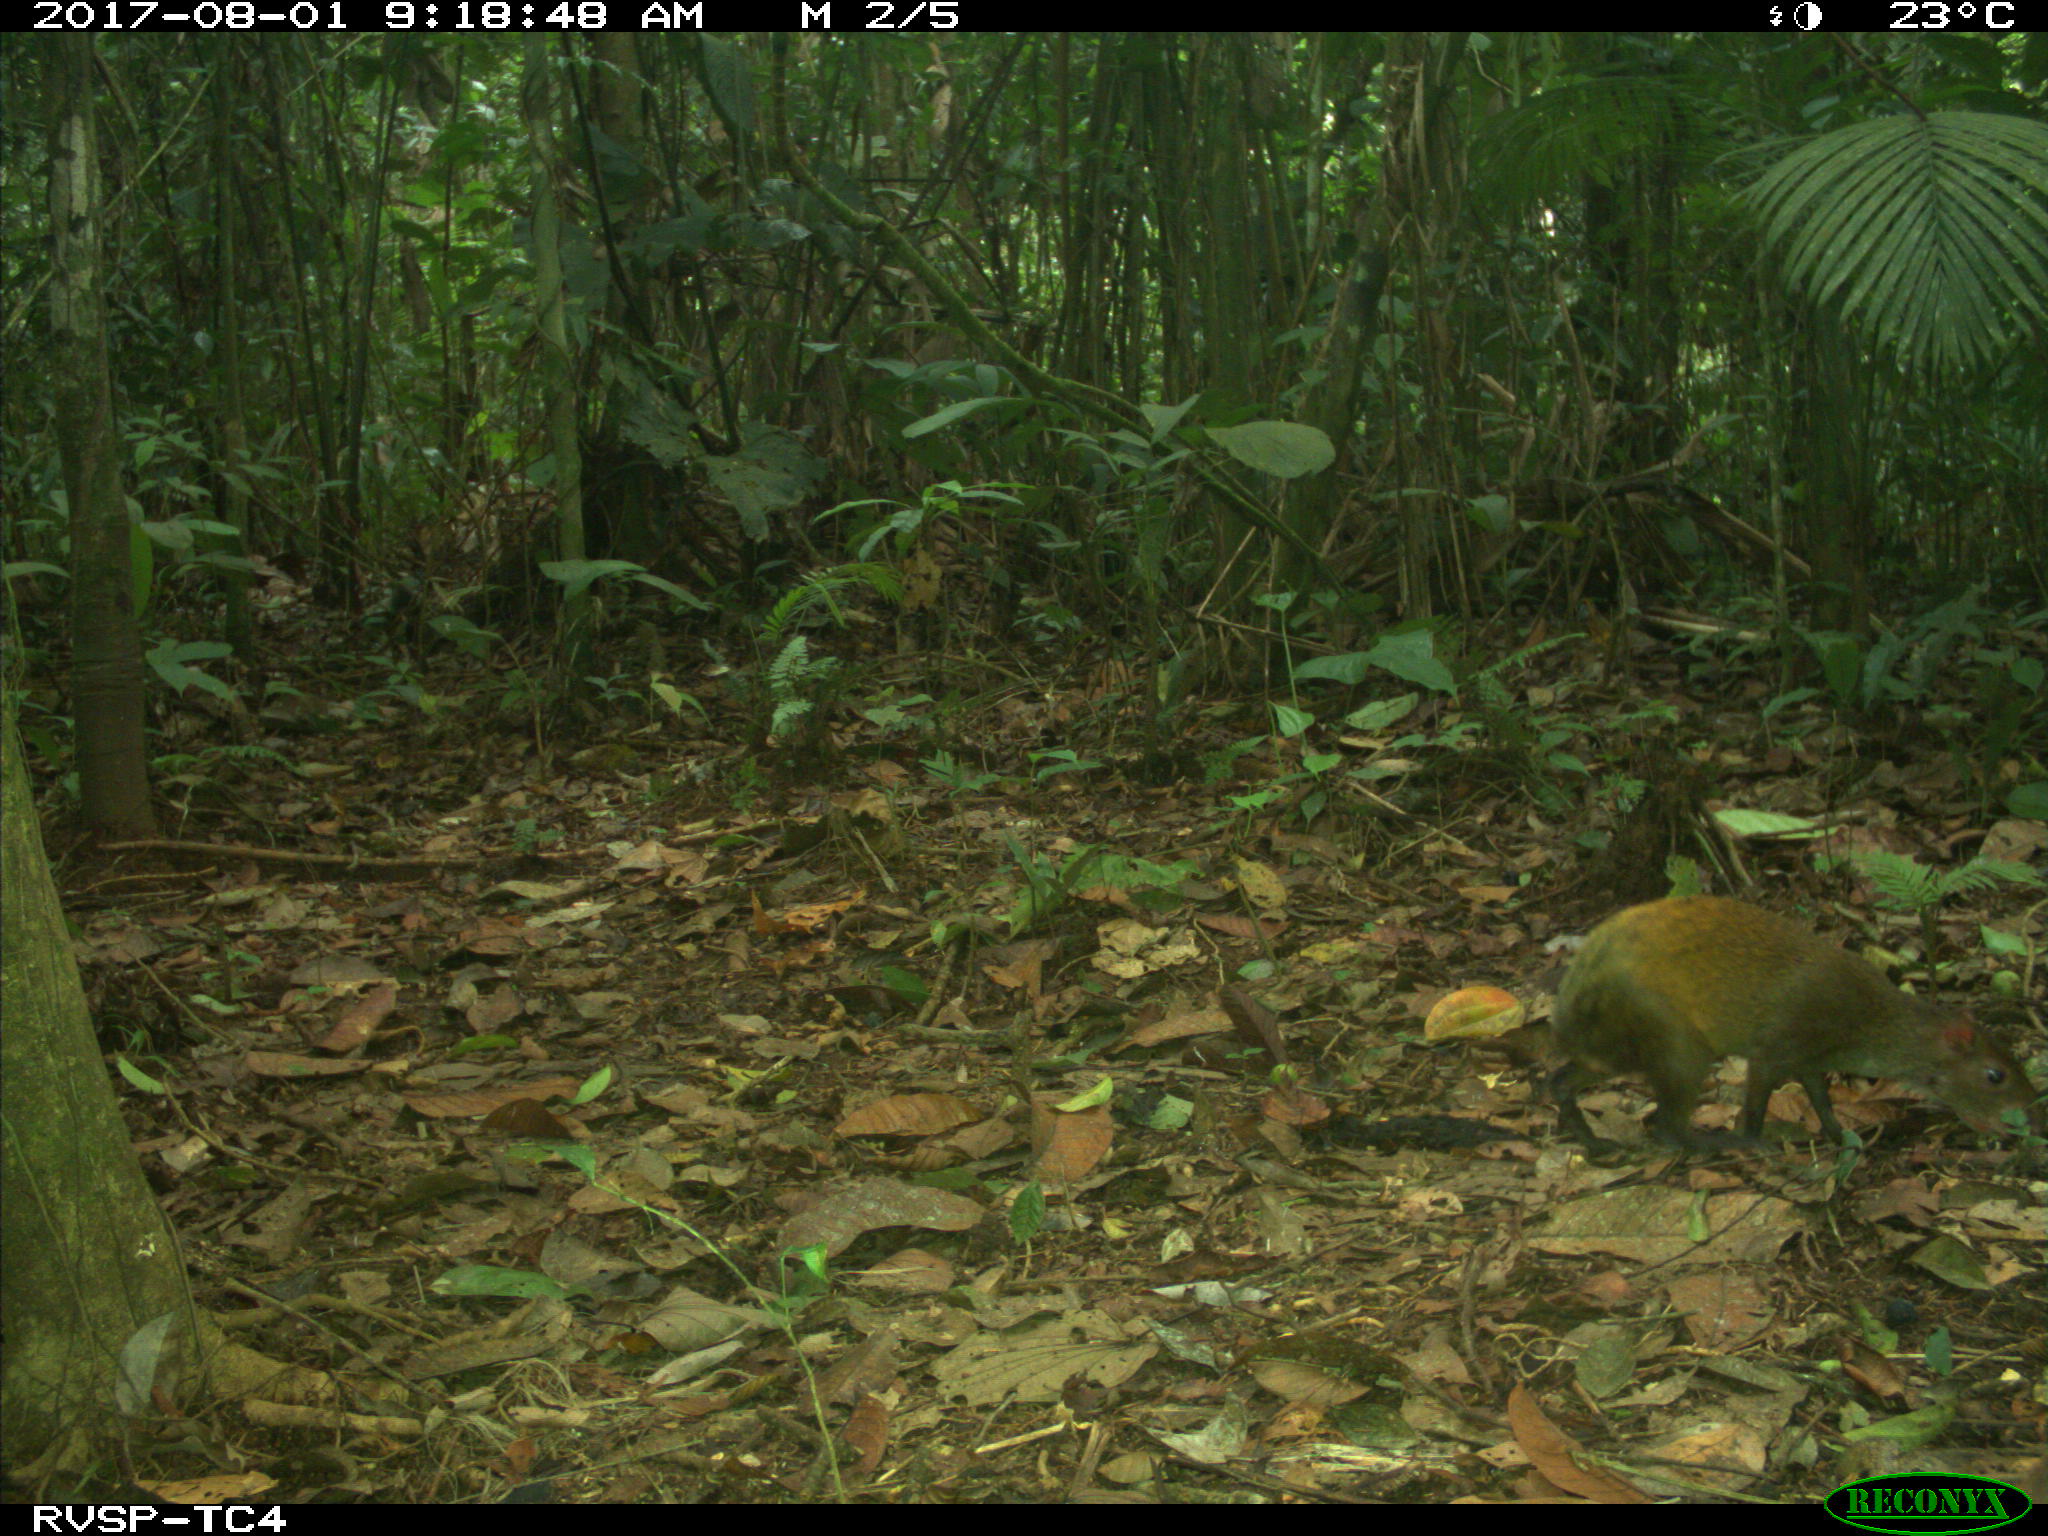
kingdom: Animalia
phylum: Chordata
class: Mammalia
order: Rodentia
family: Dasyproctidae
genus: Dasyprocta
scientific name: Dasyprocta punctata
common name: Central american agouti
